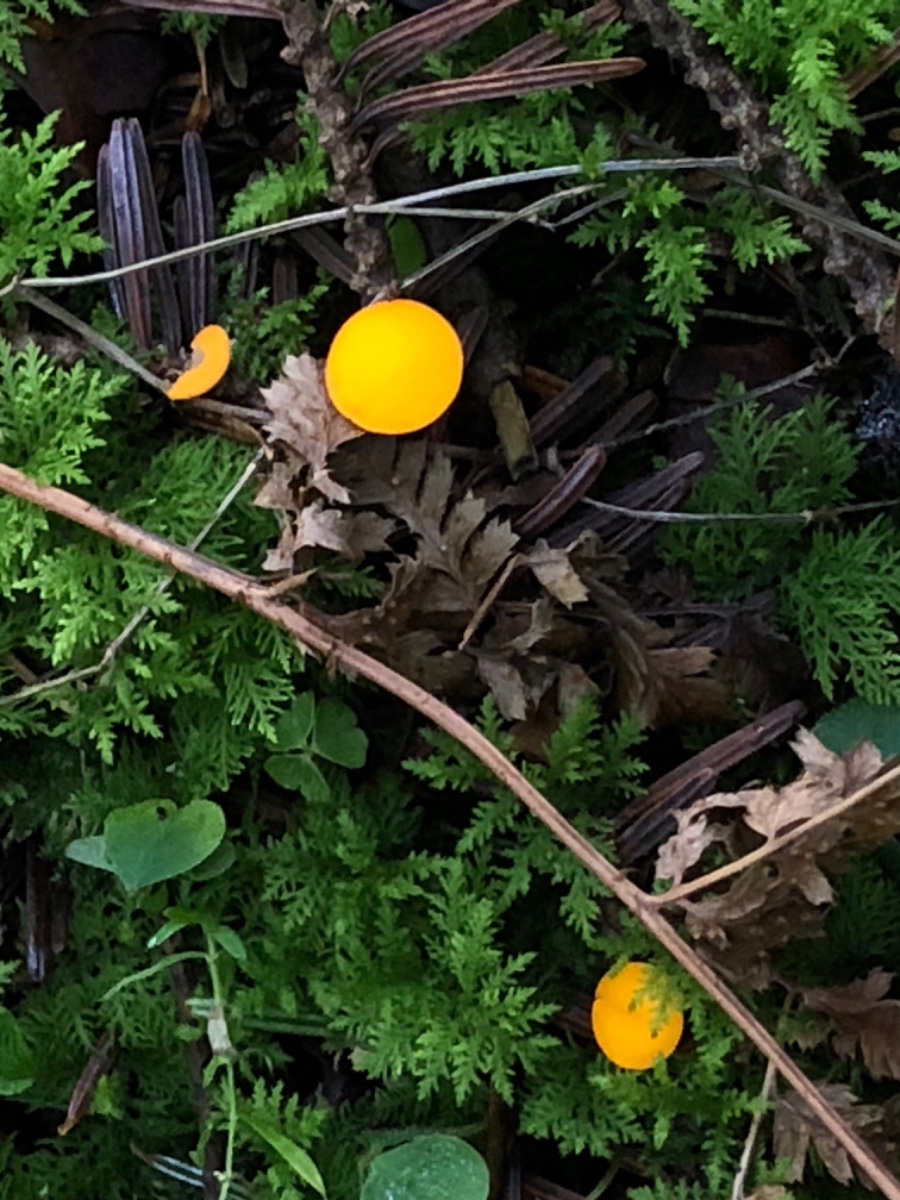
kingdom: Fungi
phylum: Ascomycota
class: Pezizomycetes
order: Pezizales
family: Sarcoscyphaceae
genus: Pithya
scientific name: Pithya vulgaris
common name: stor dukatbæger
